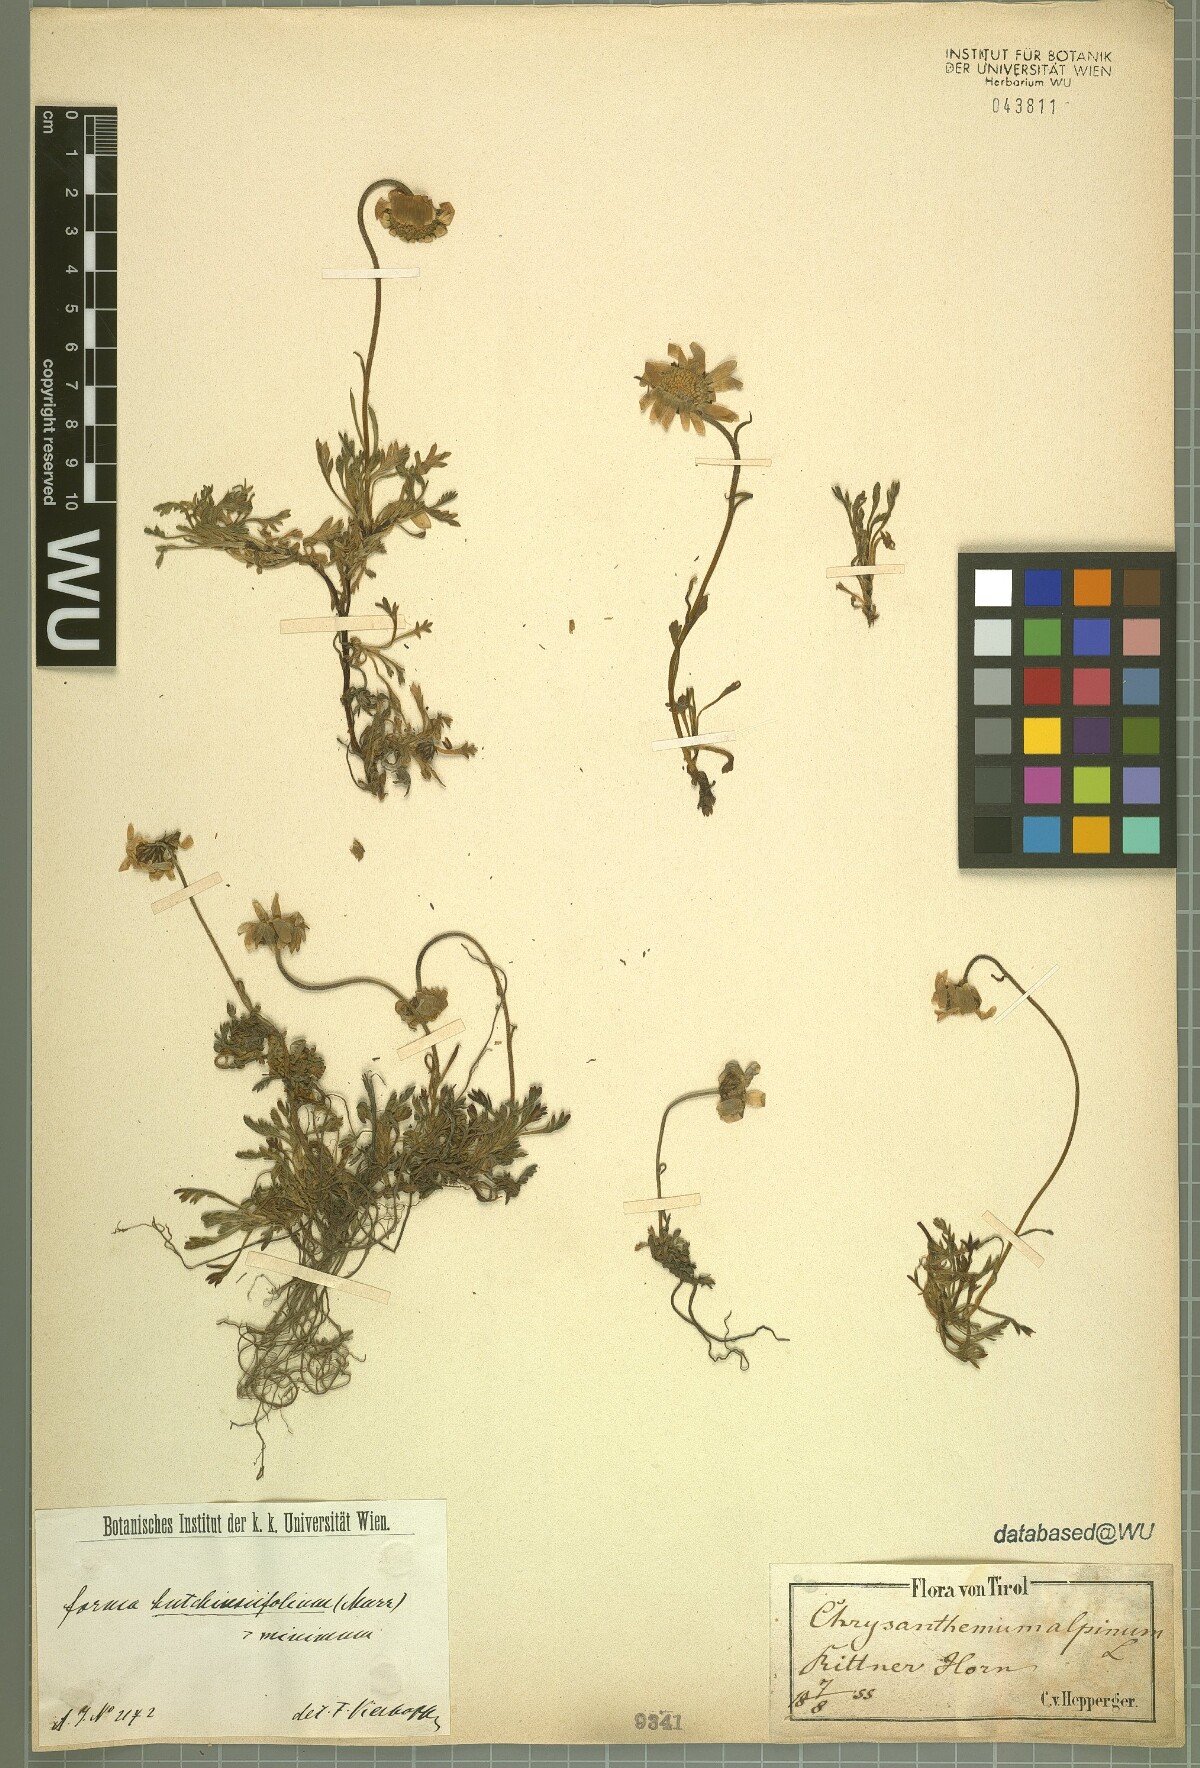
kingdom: Plantae
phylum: Tracheophyta
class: Magnoliopsida
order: Asterales
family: Asteraceae
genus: Leucanthemopsis
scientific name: Leucanthemopsis alpina
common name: Alpine moon daisy
